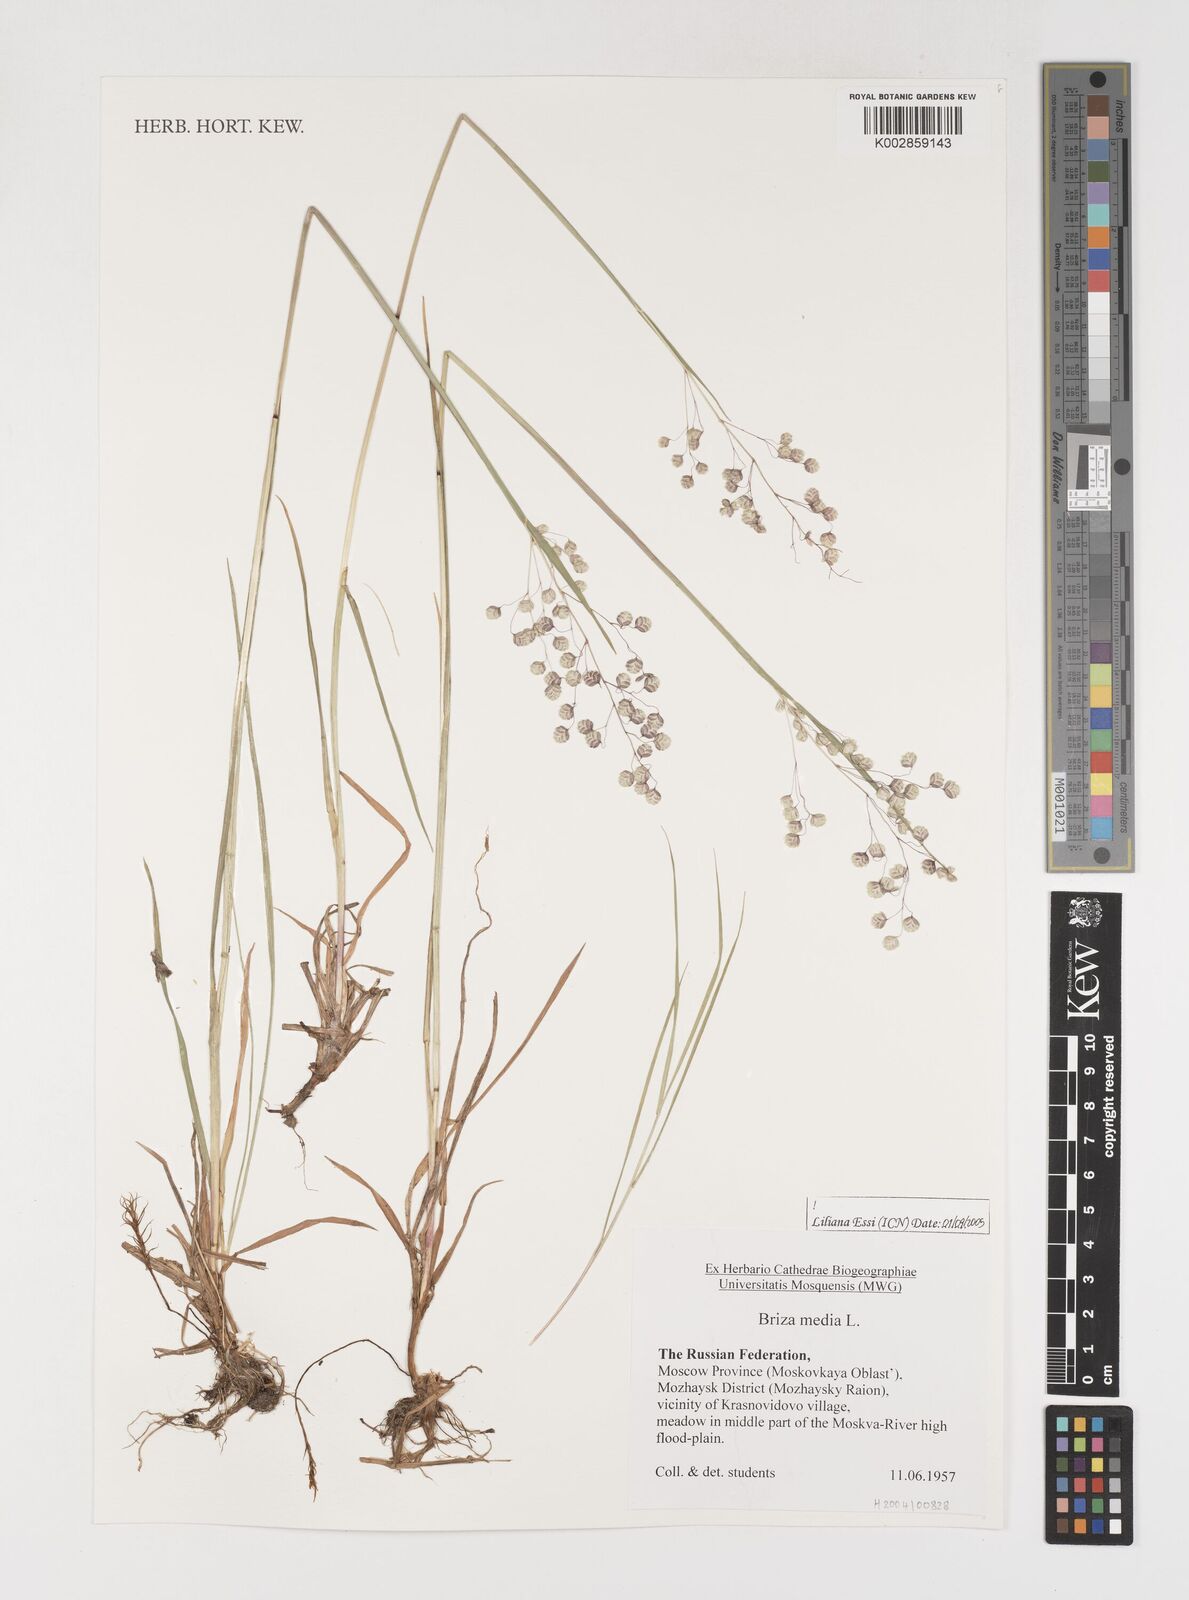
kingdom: Plantae
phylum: Tracheophyta
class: Liliopsida
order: Poales
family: Poaceae
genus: Briza
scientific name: Briza media
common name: Quaking grass
